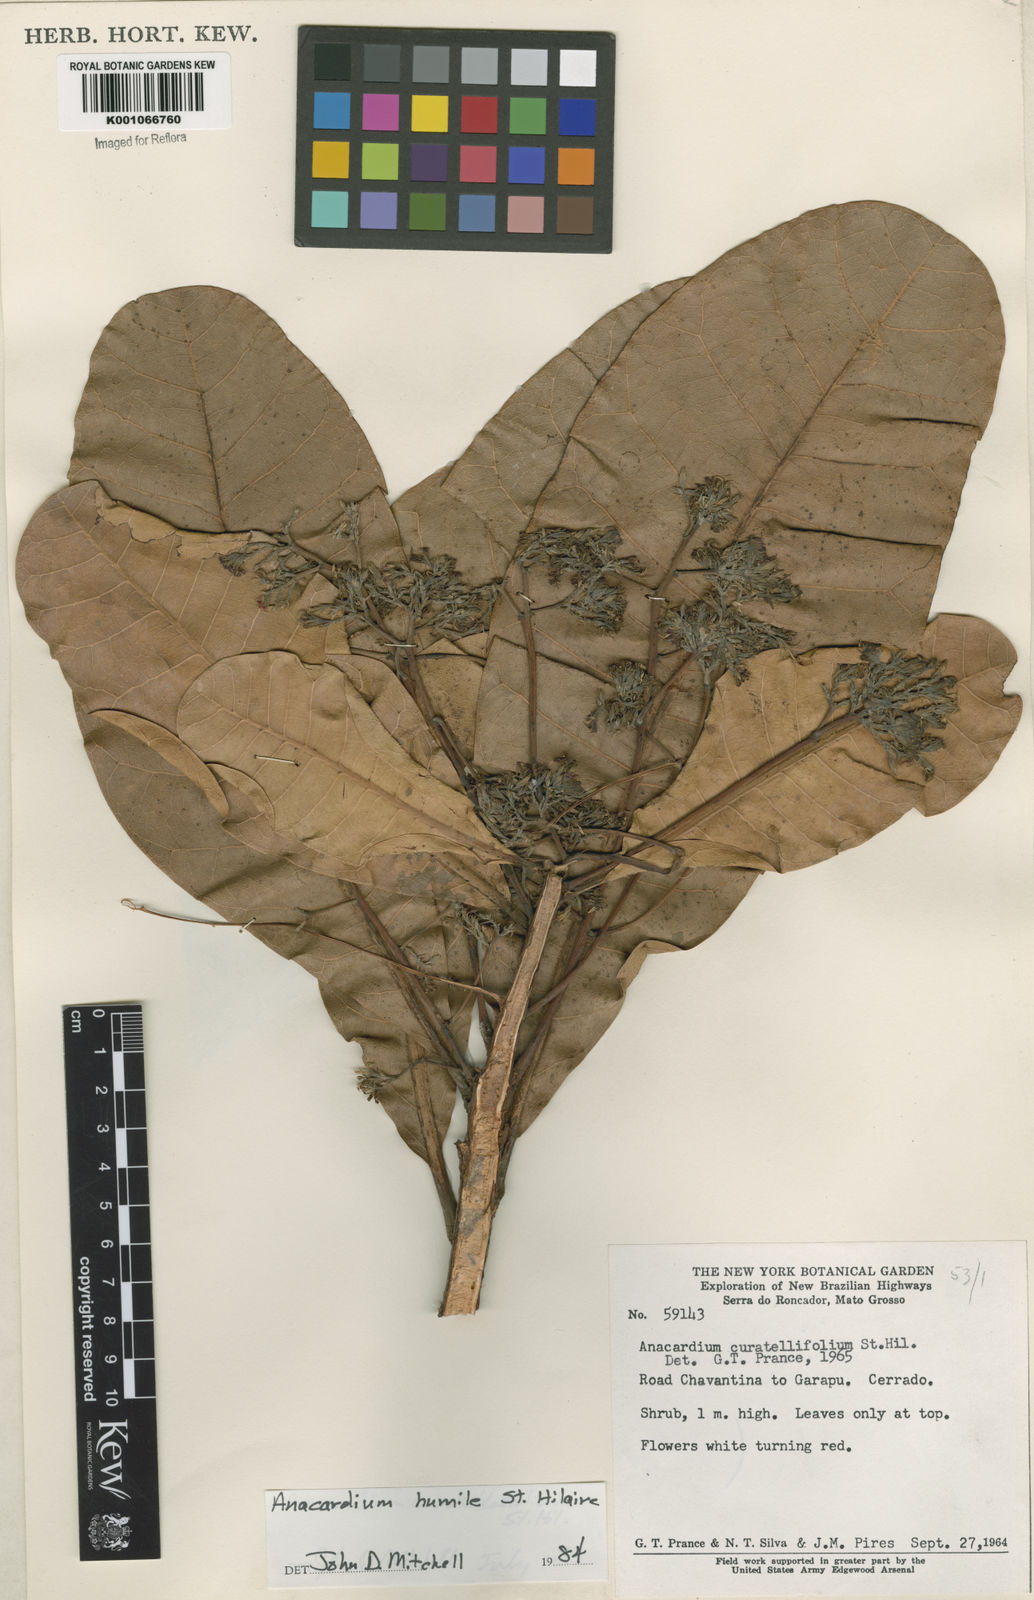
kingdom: Plantae
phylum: Tracheophyta
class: Magnoliopsida
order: Sapindales
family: Anacardiaceae
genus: Anacardium
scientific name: Anacardium humile
